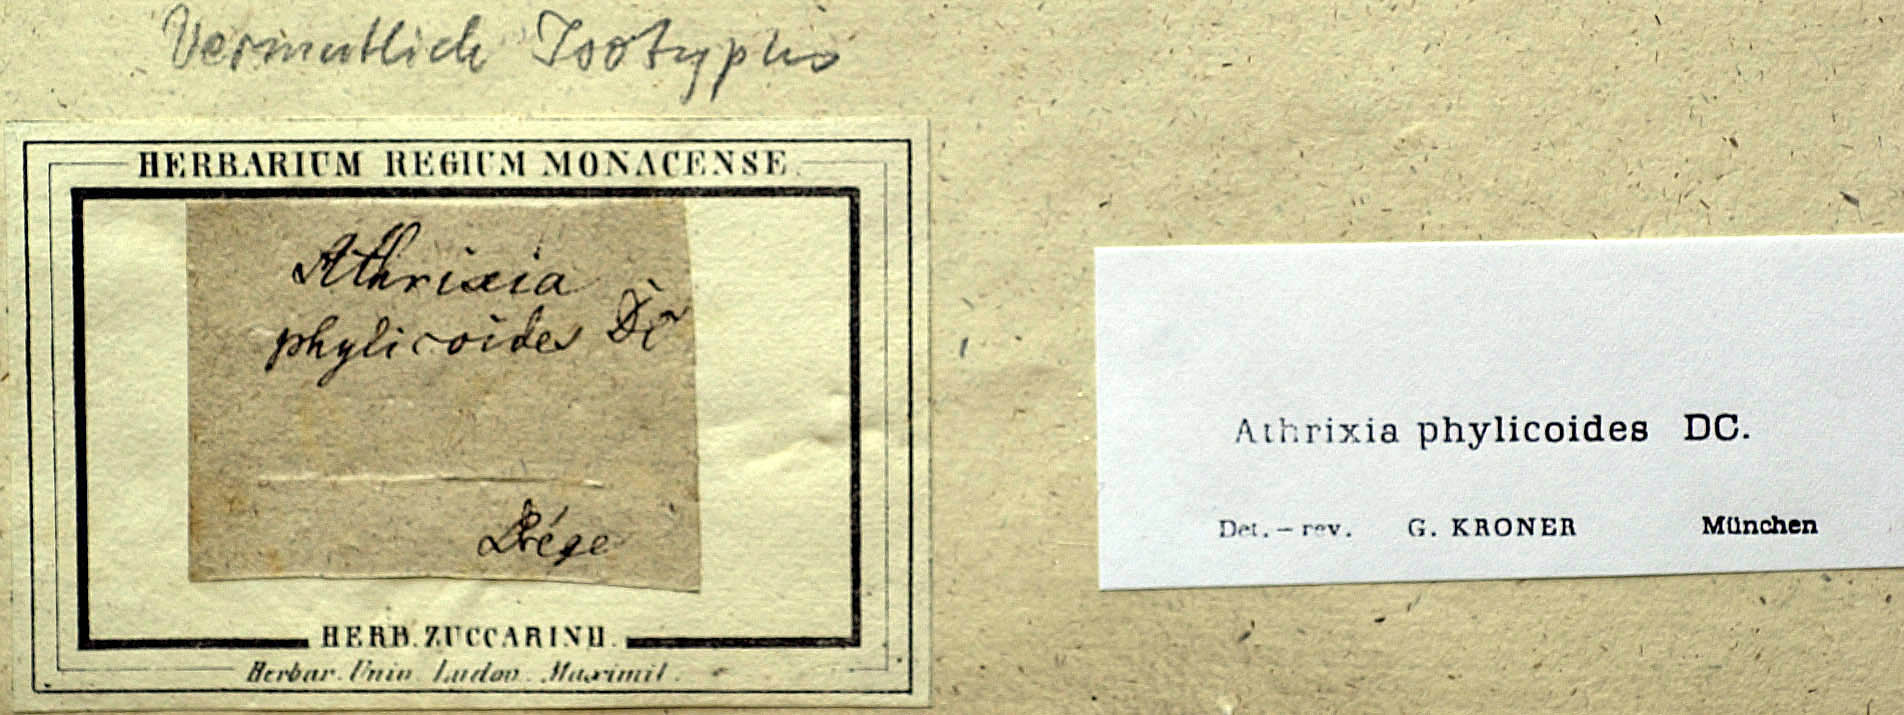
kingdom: Plantae
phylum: Tracheophyta
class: Magnoliopsida
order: Asterales
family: Asteraceae
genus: Athrixia
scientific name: Athrixia phylicoides
